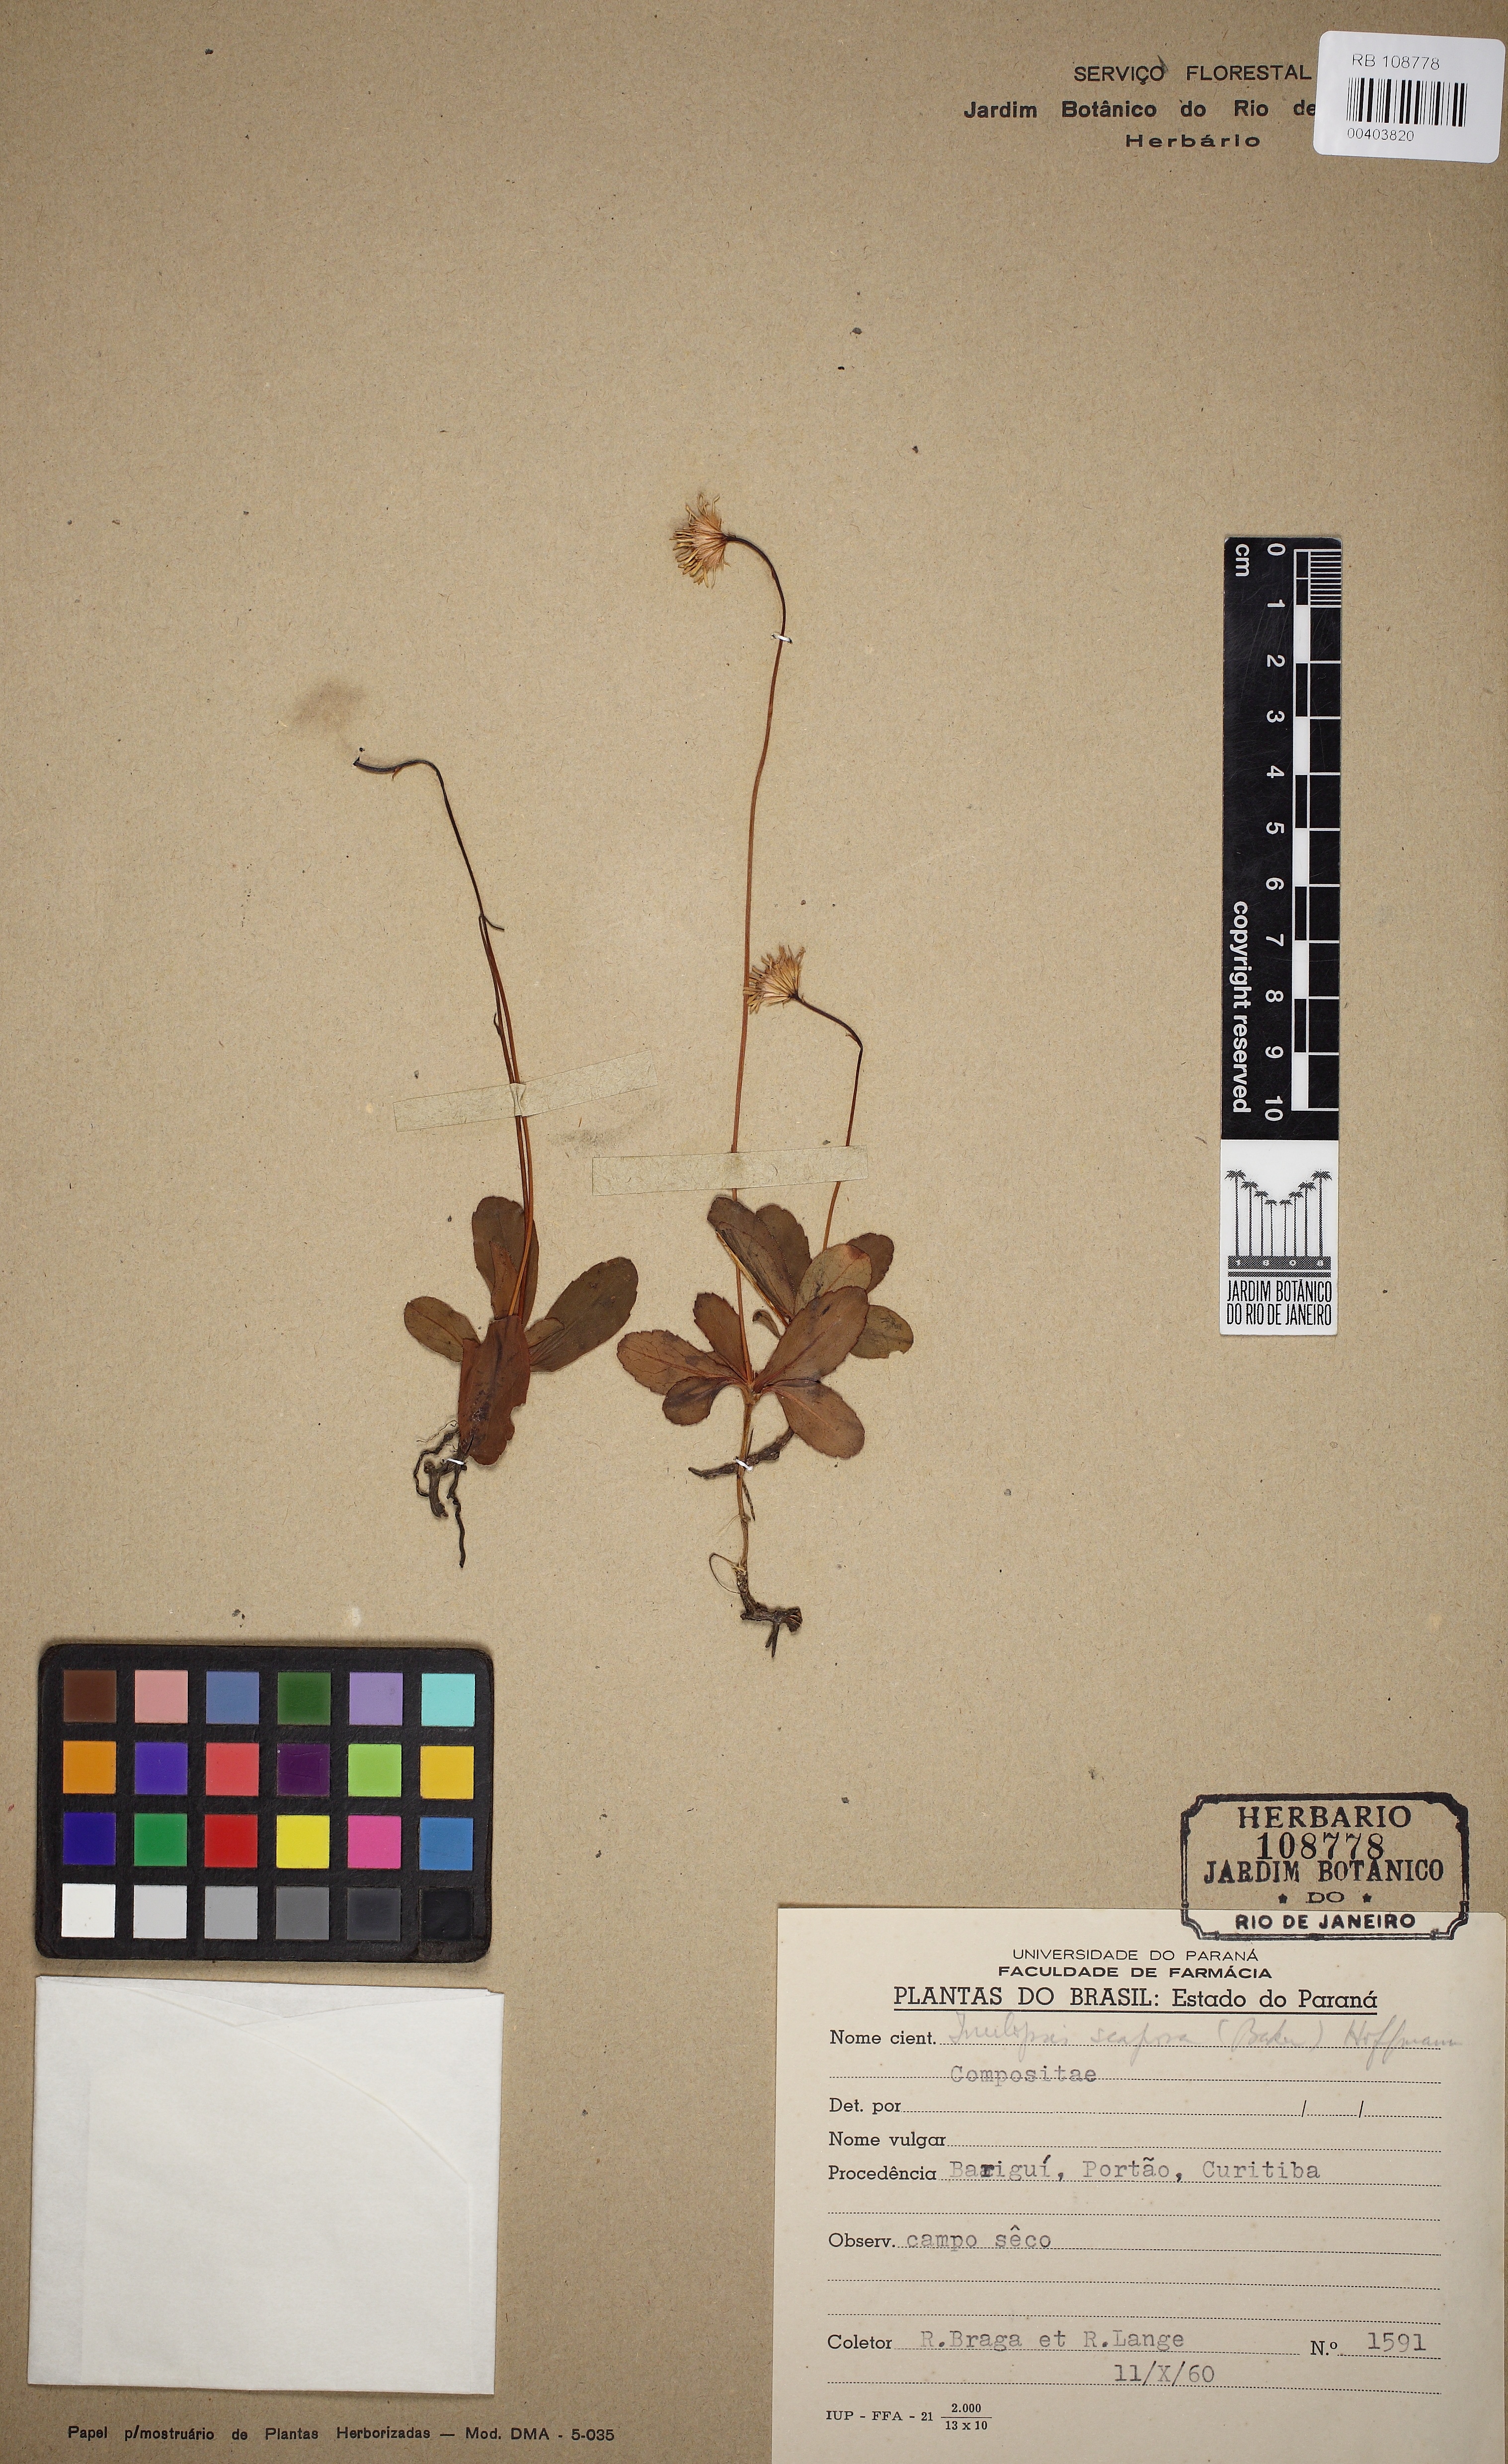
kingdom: Plantae
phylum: Tracheophyta
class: Magnoliopsida
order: Asterales
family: Asteraceae
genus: Inulopsis
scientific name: Inulopsis scaposa
